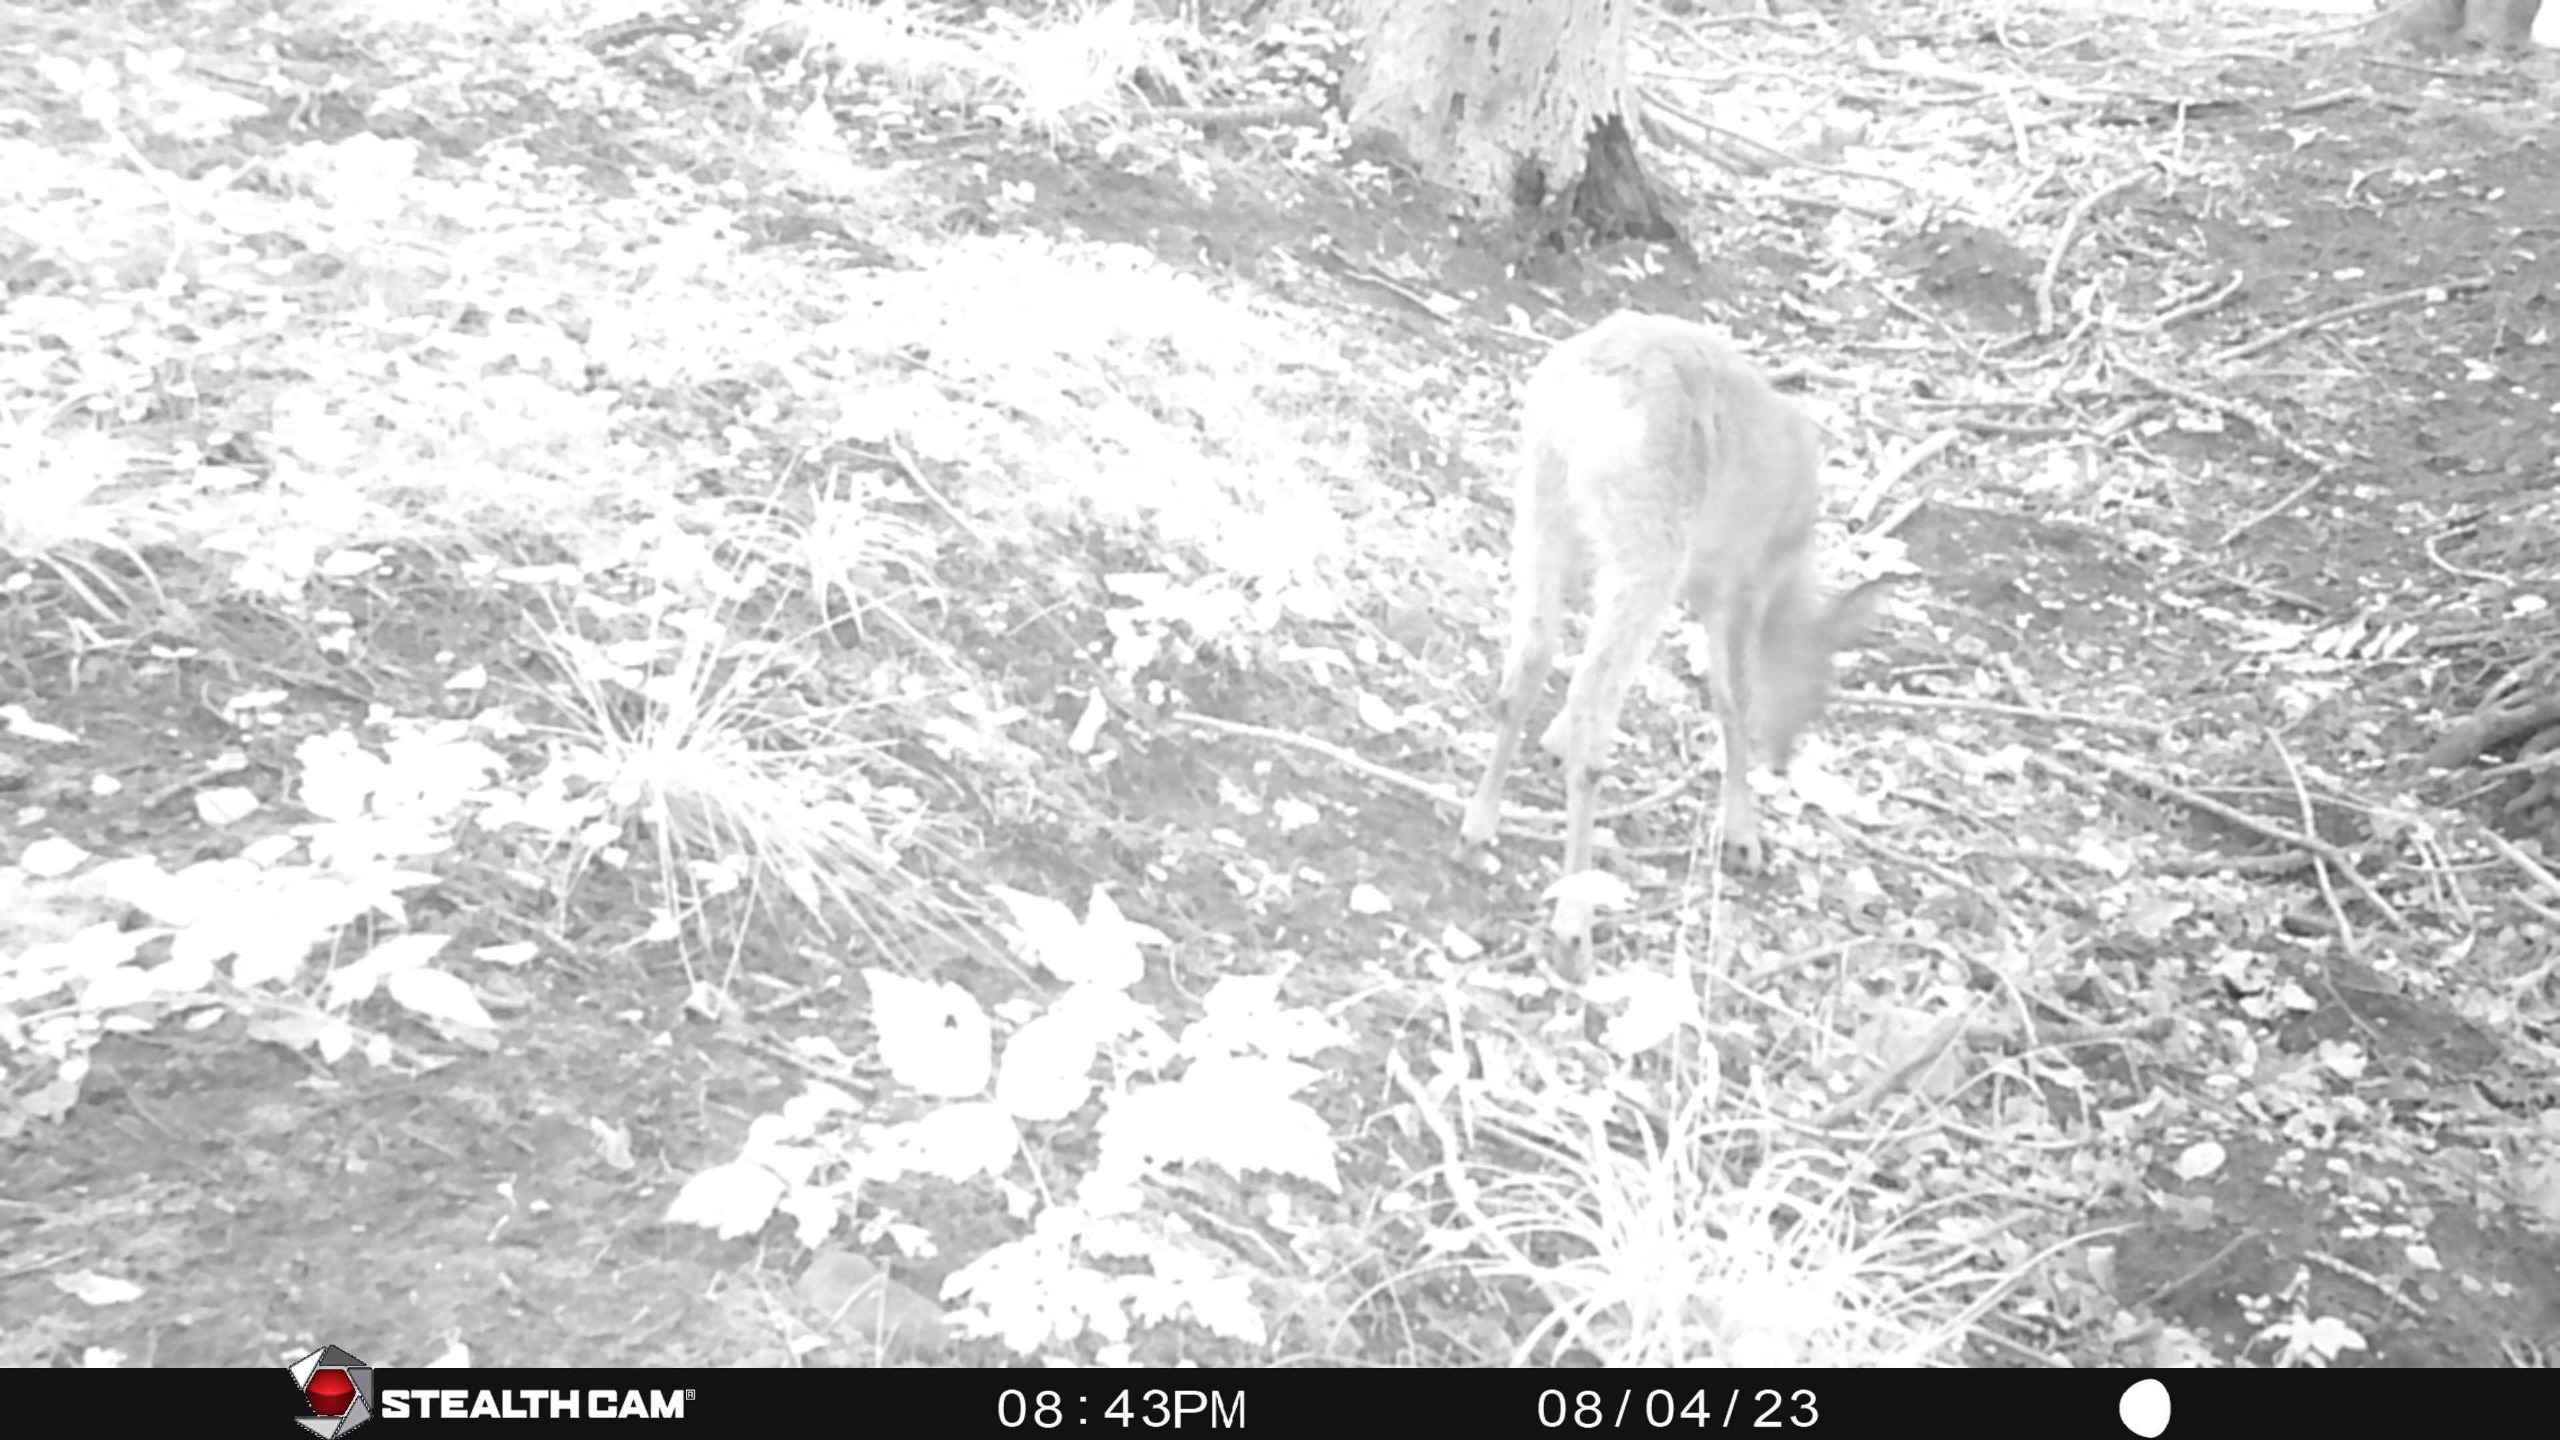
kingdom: Animalia
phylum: Chordata
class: Mammalia
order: Artiodactyla
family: Cervidae
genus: Capreolus
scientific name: Capreolus capreolus
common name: Rådyr
